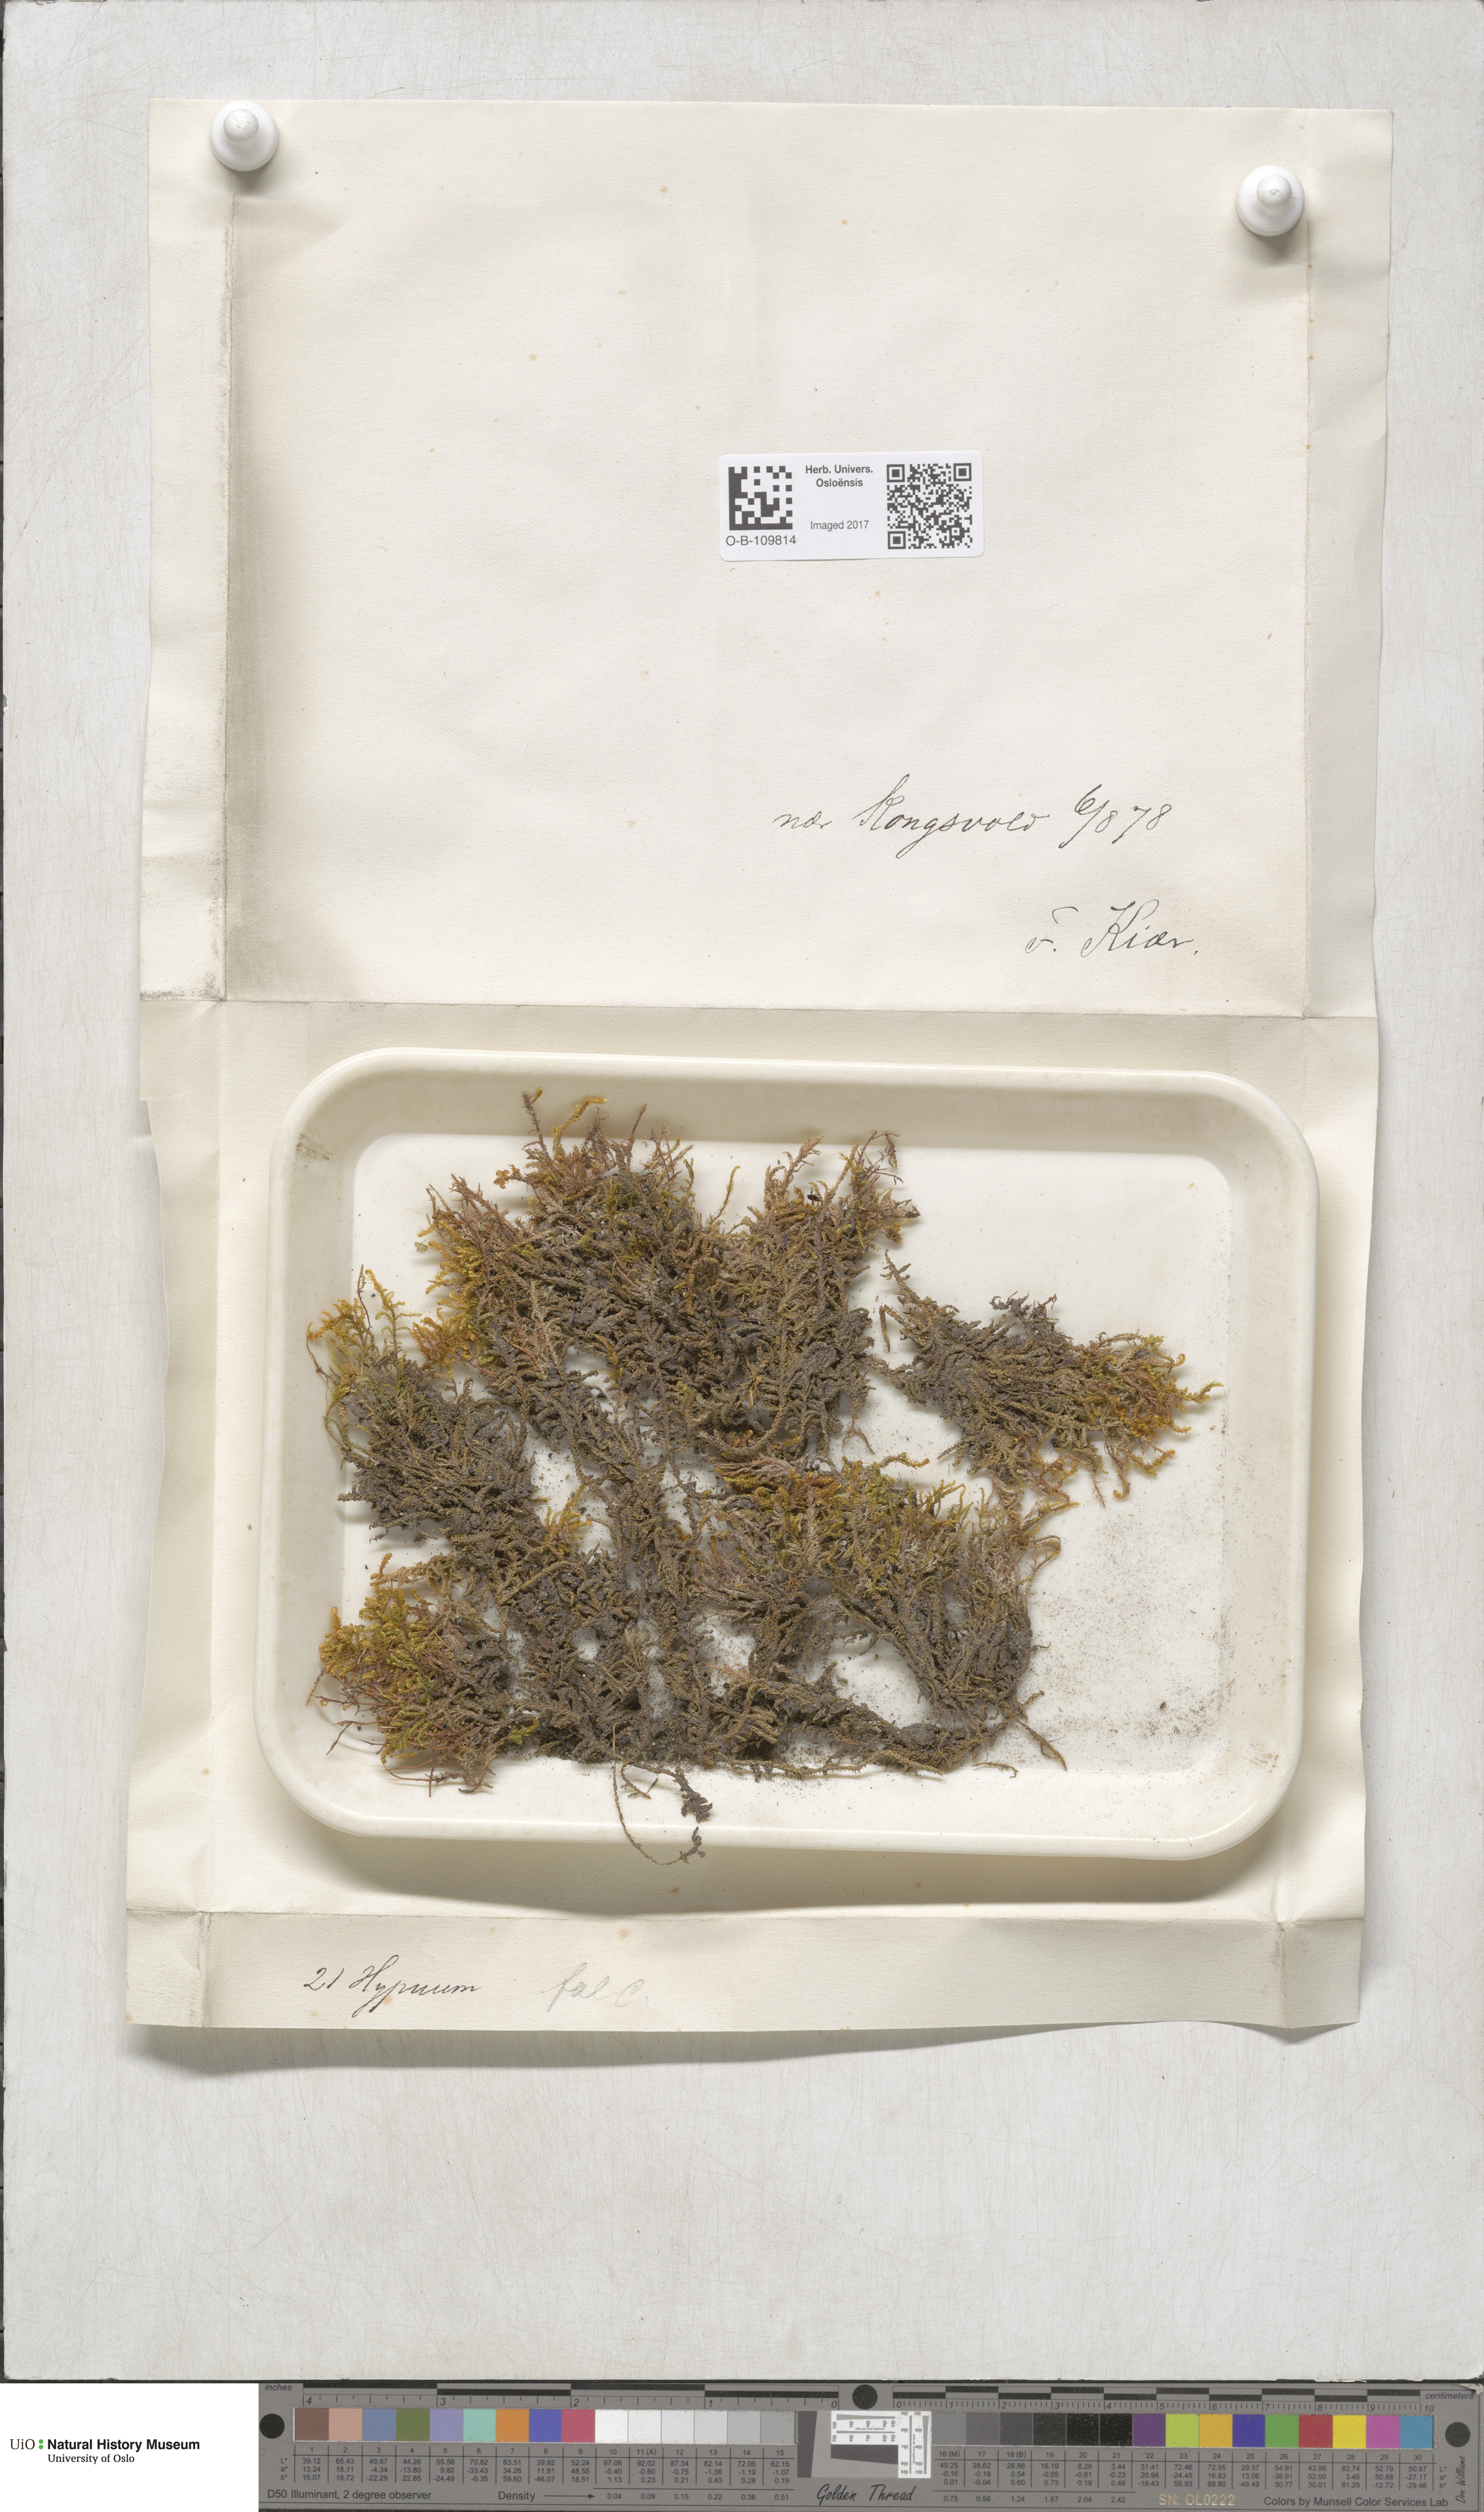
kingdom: Plantae
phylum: Bryophyta
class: Bryopsida
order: Hypnales
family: Amblystegiaceae
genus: Palustriella
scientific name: Palustriella falcata
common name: Curled hook-moss
